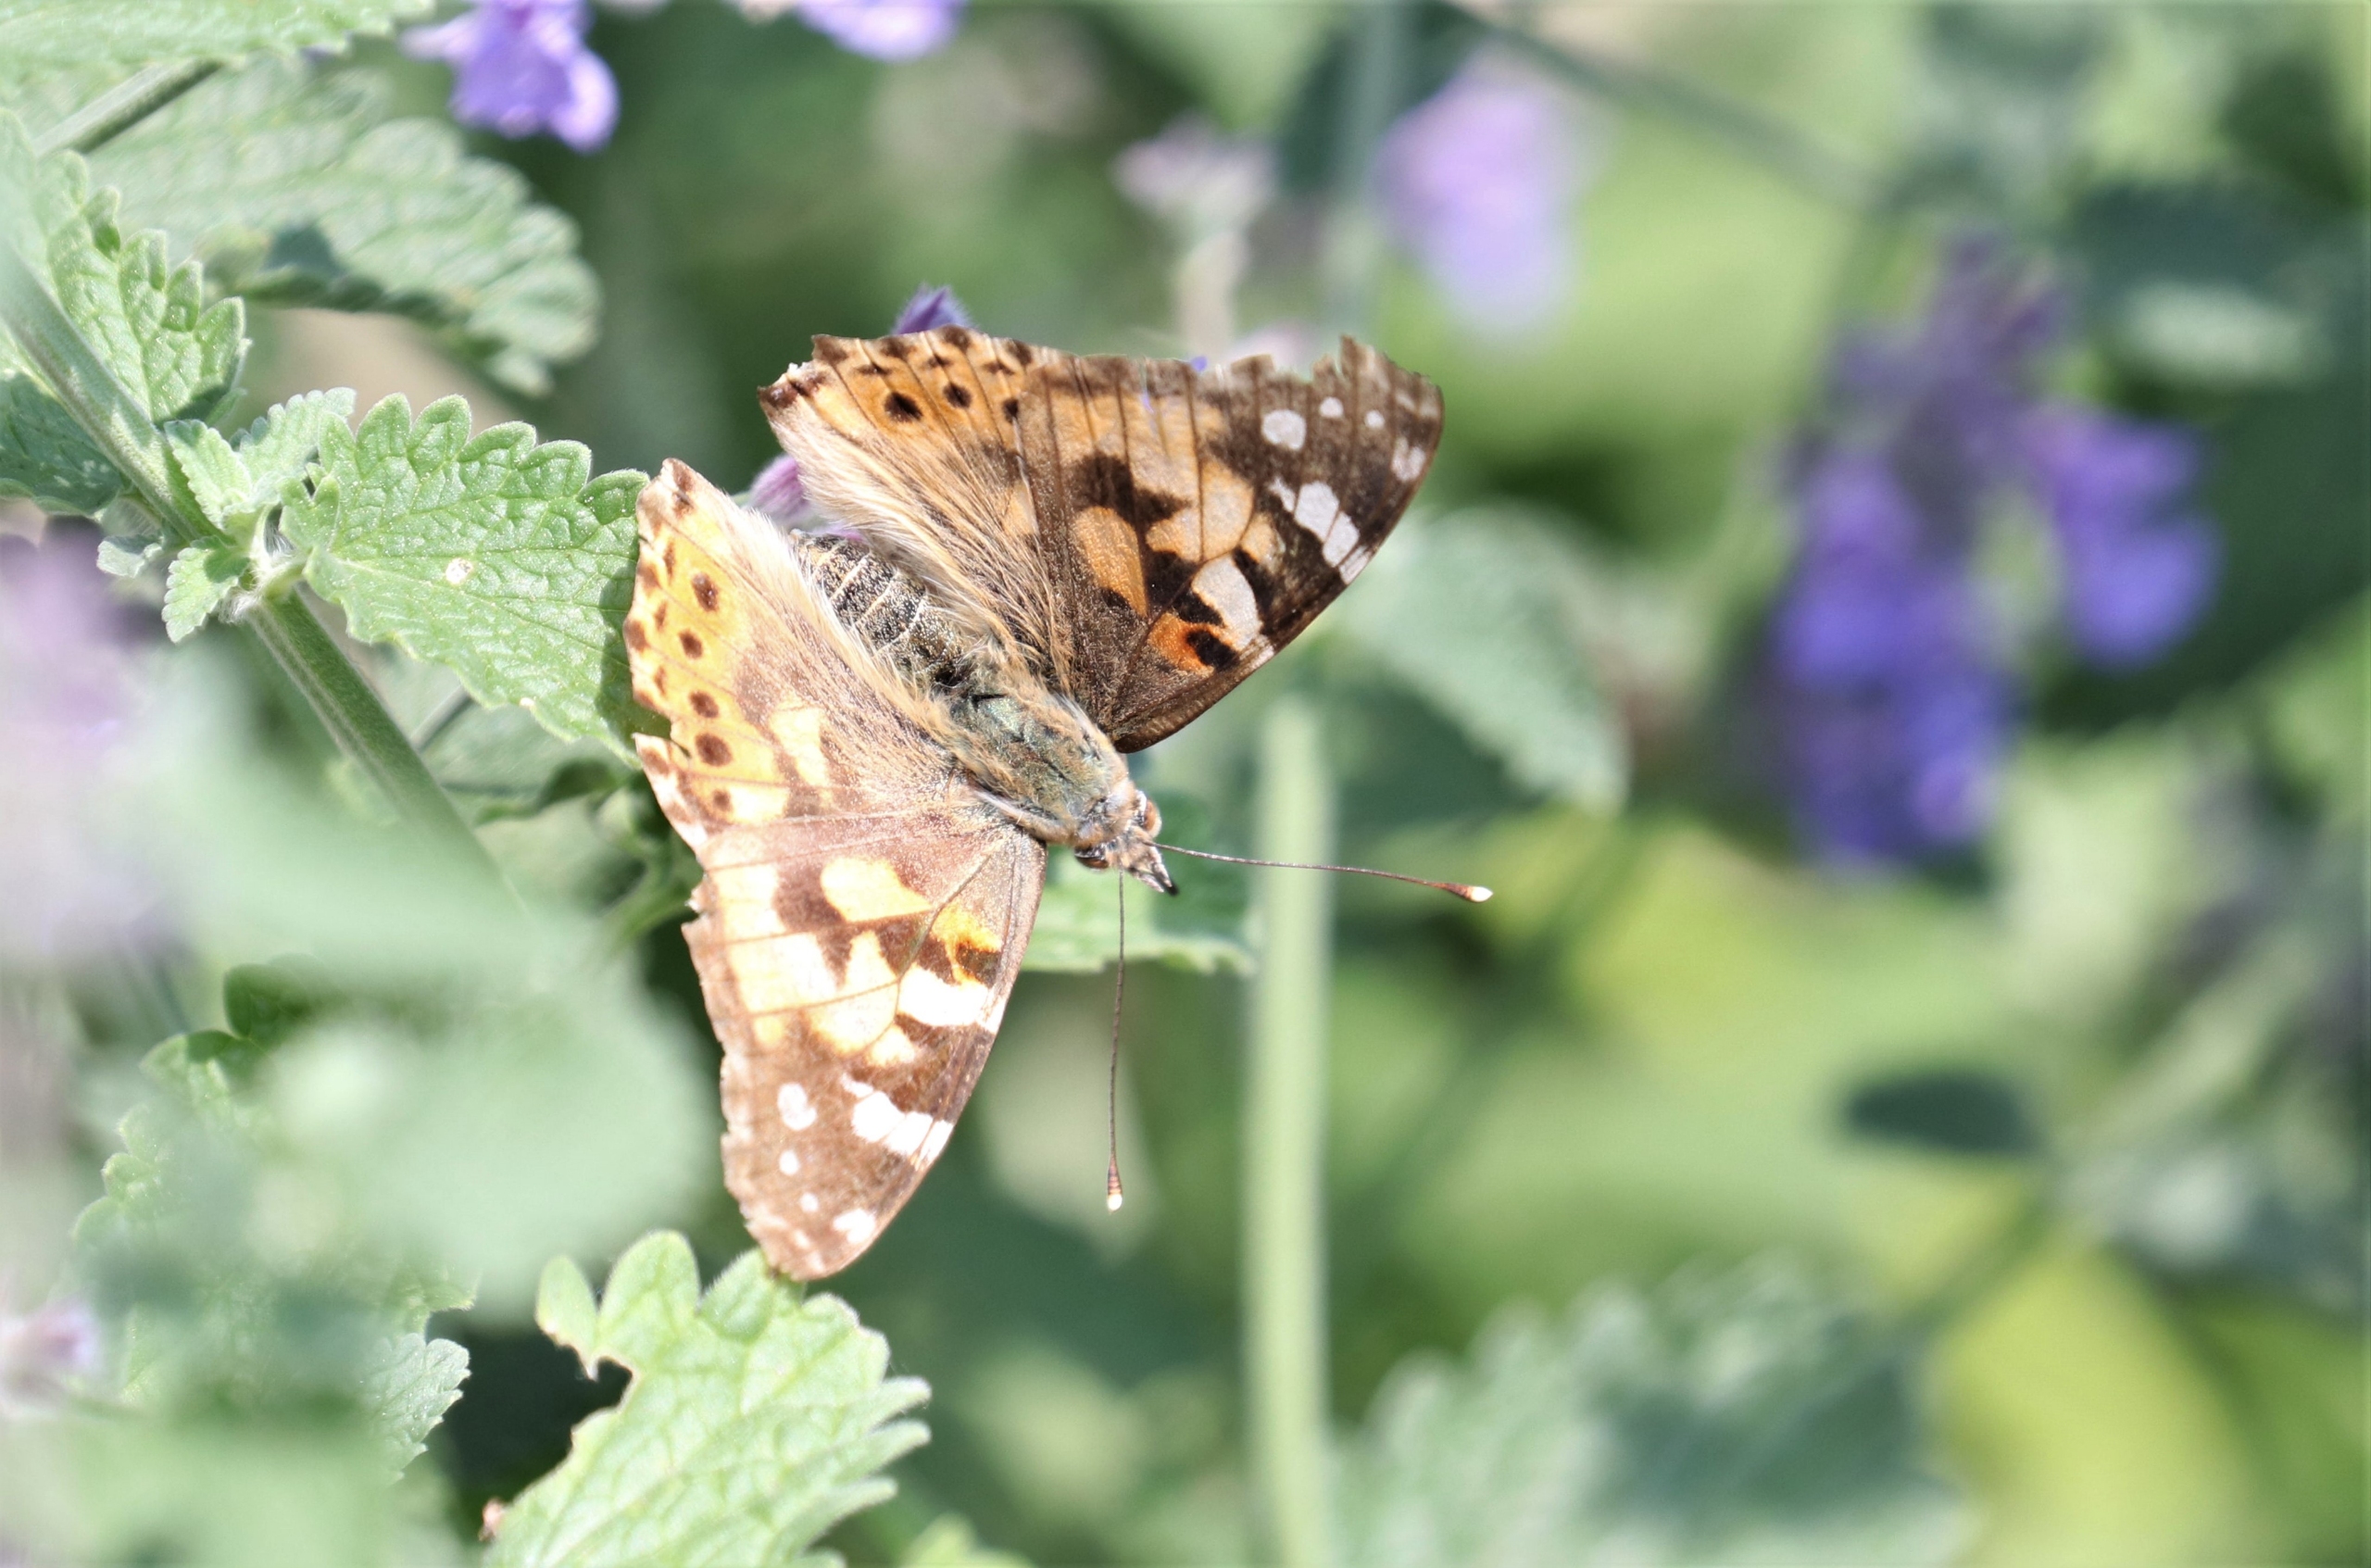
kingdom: Animalia
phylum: Arthropoda
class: Insecta
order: Lepidoptera
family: Nymphalidae
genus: Vanessa
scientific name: Vanessa cardui
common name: Tidselsommerfugl
